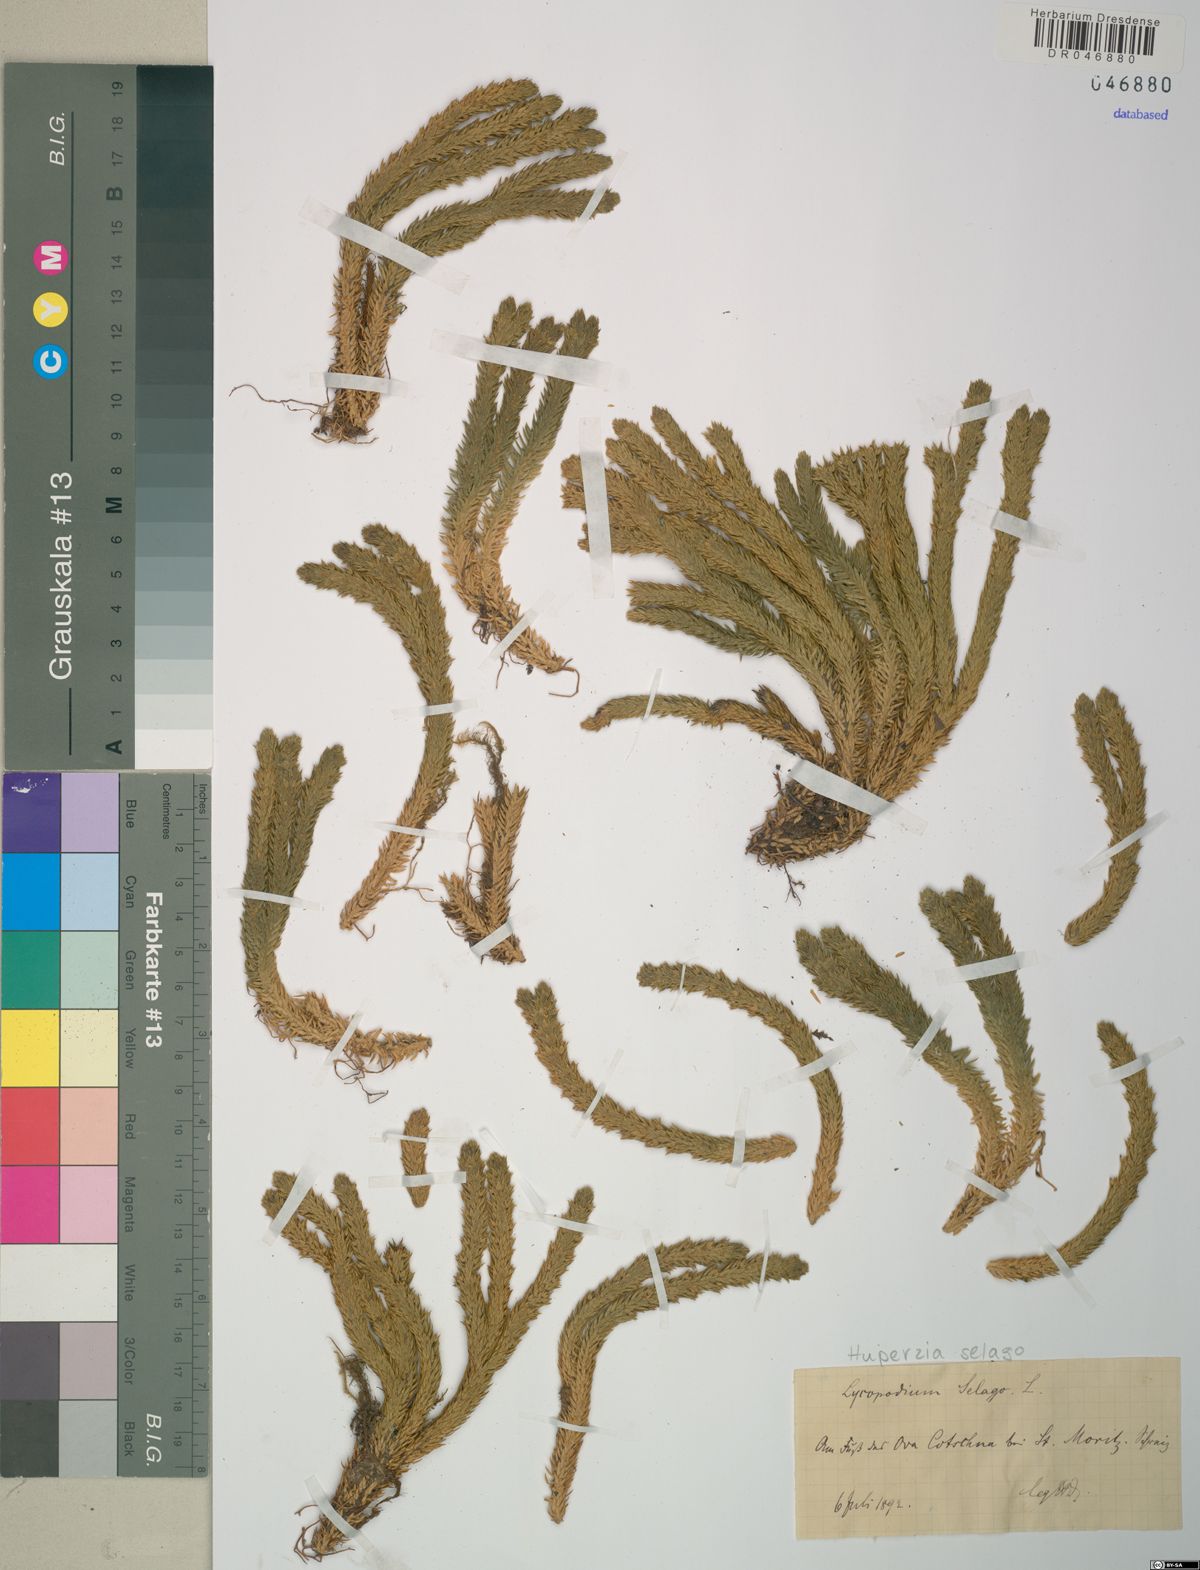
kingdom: Plantae
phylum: Tracheophyta
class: Lycopodiopsida
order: Lycopodiales
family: Lycopodiaceae
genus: Huperzia
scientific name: Huperzia selago
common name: Northern firmoss
